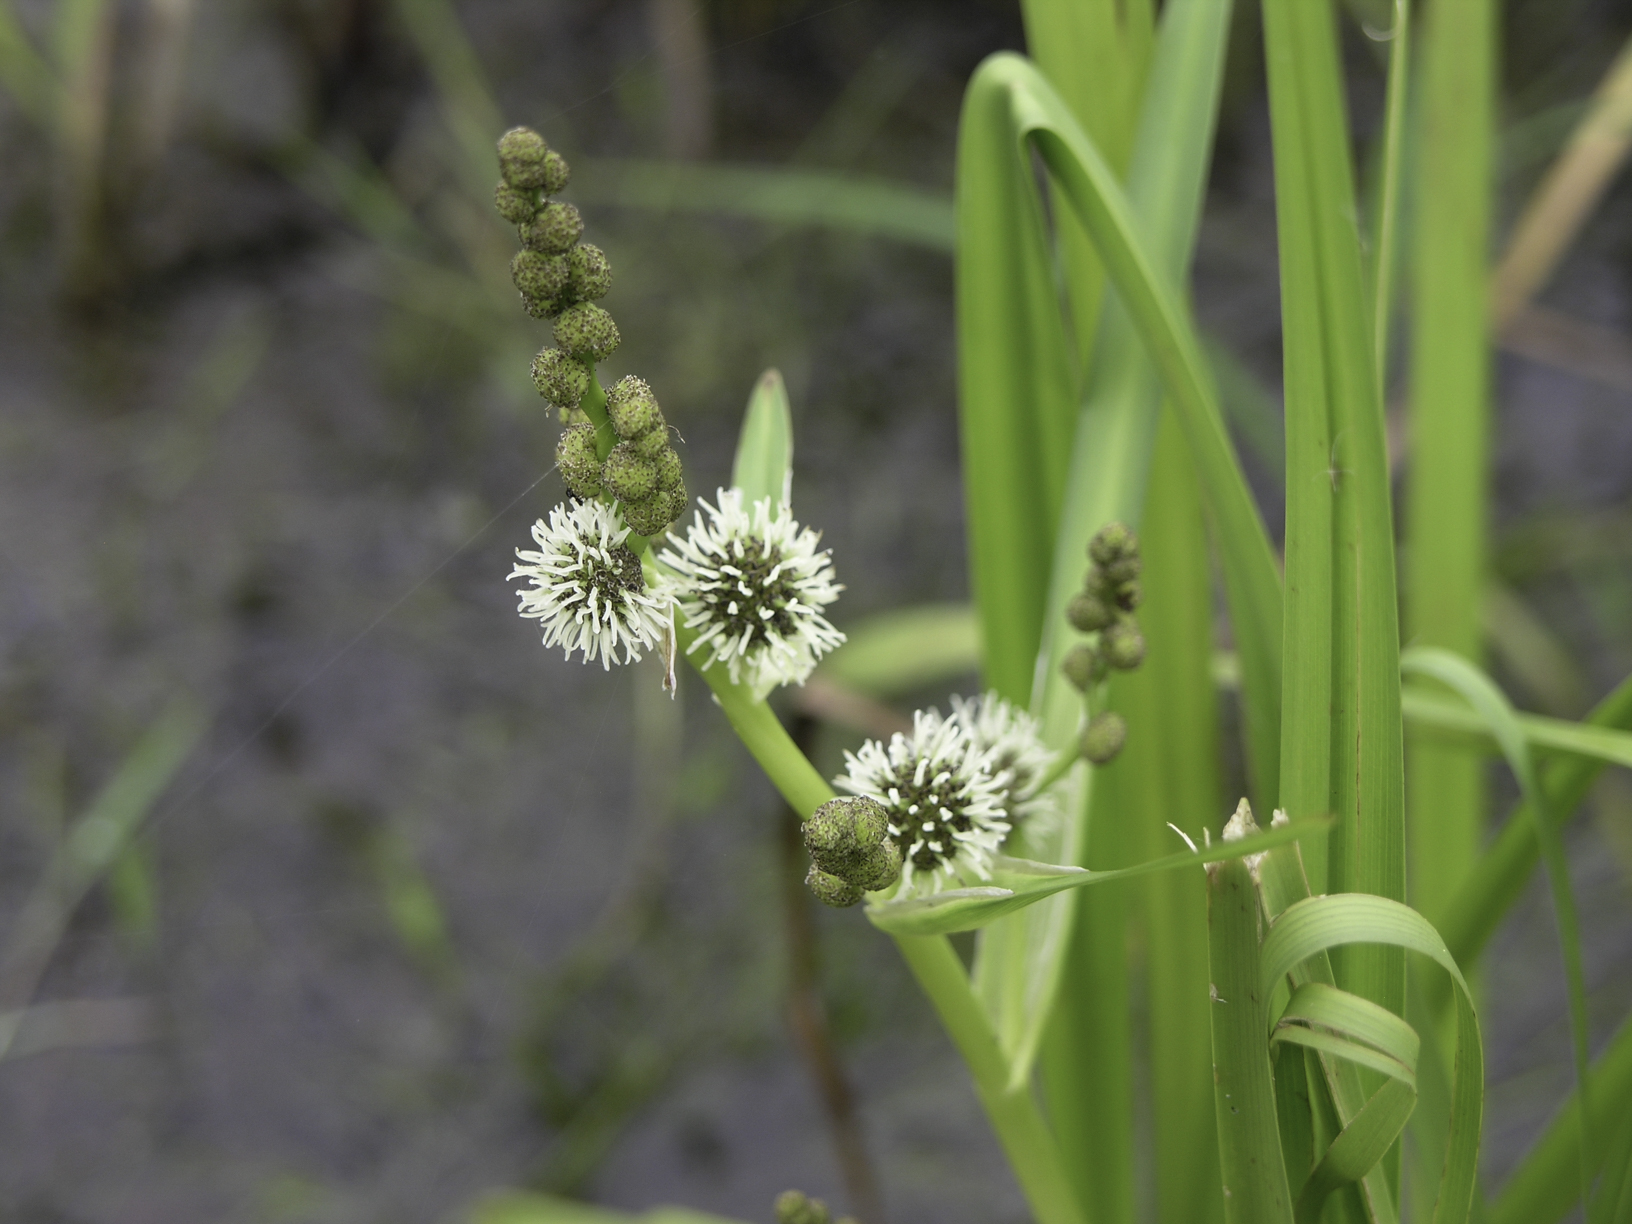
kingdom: Plantae
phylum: Tracheophyta
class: Liliopsida
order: Poales
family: Typhaceae
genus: Sparganium
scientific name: Sparganium erectum
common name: Branched bur-reed
